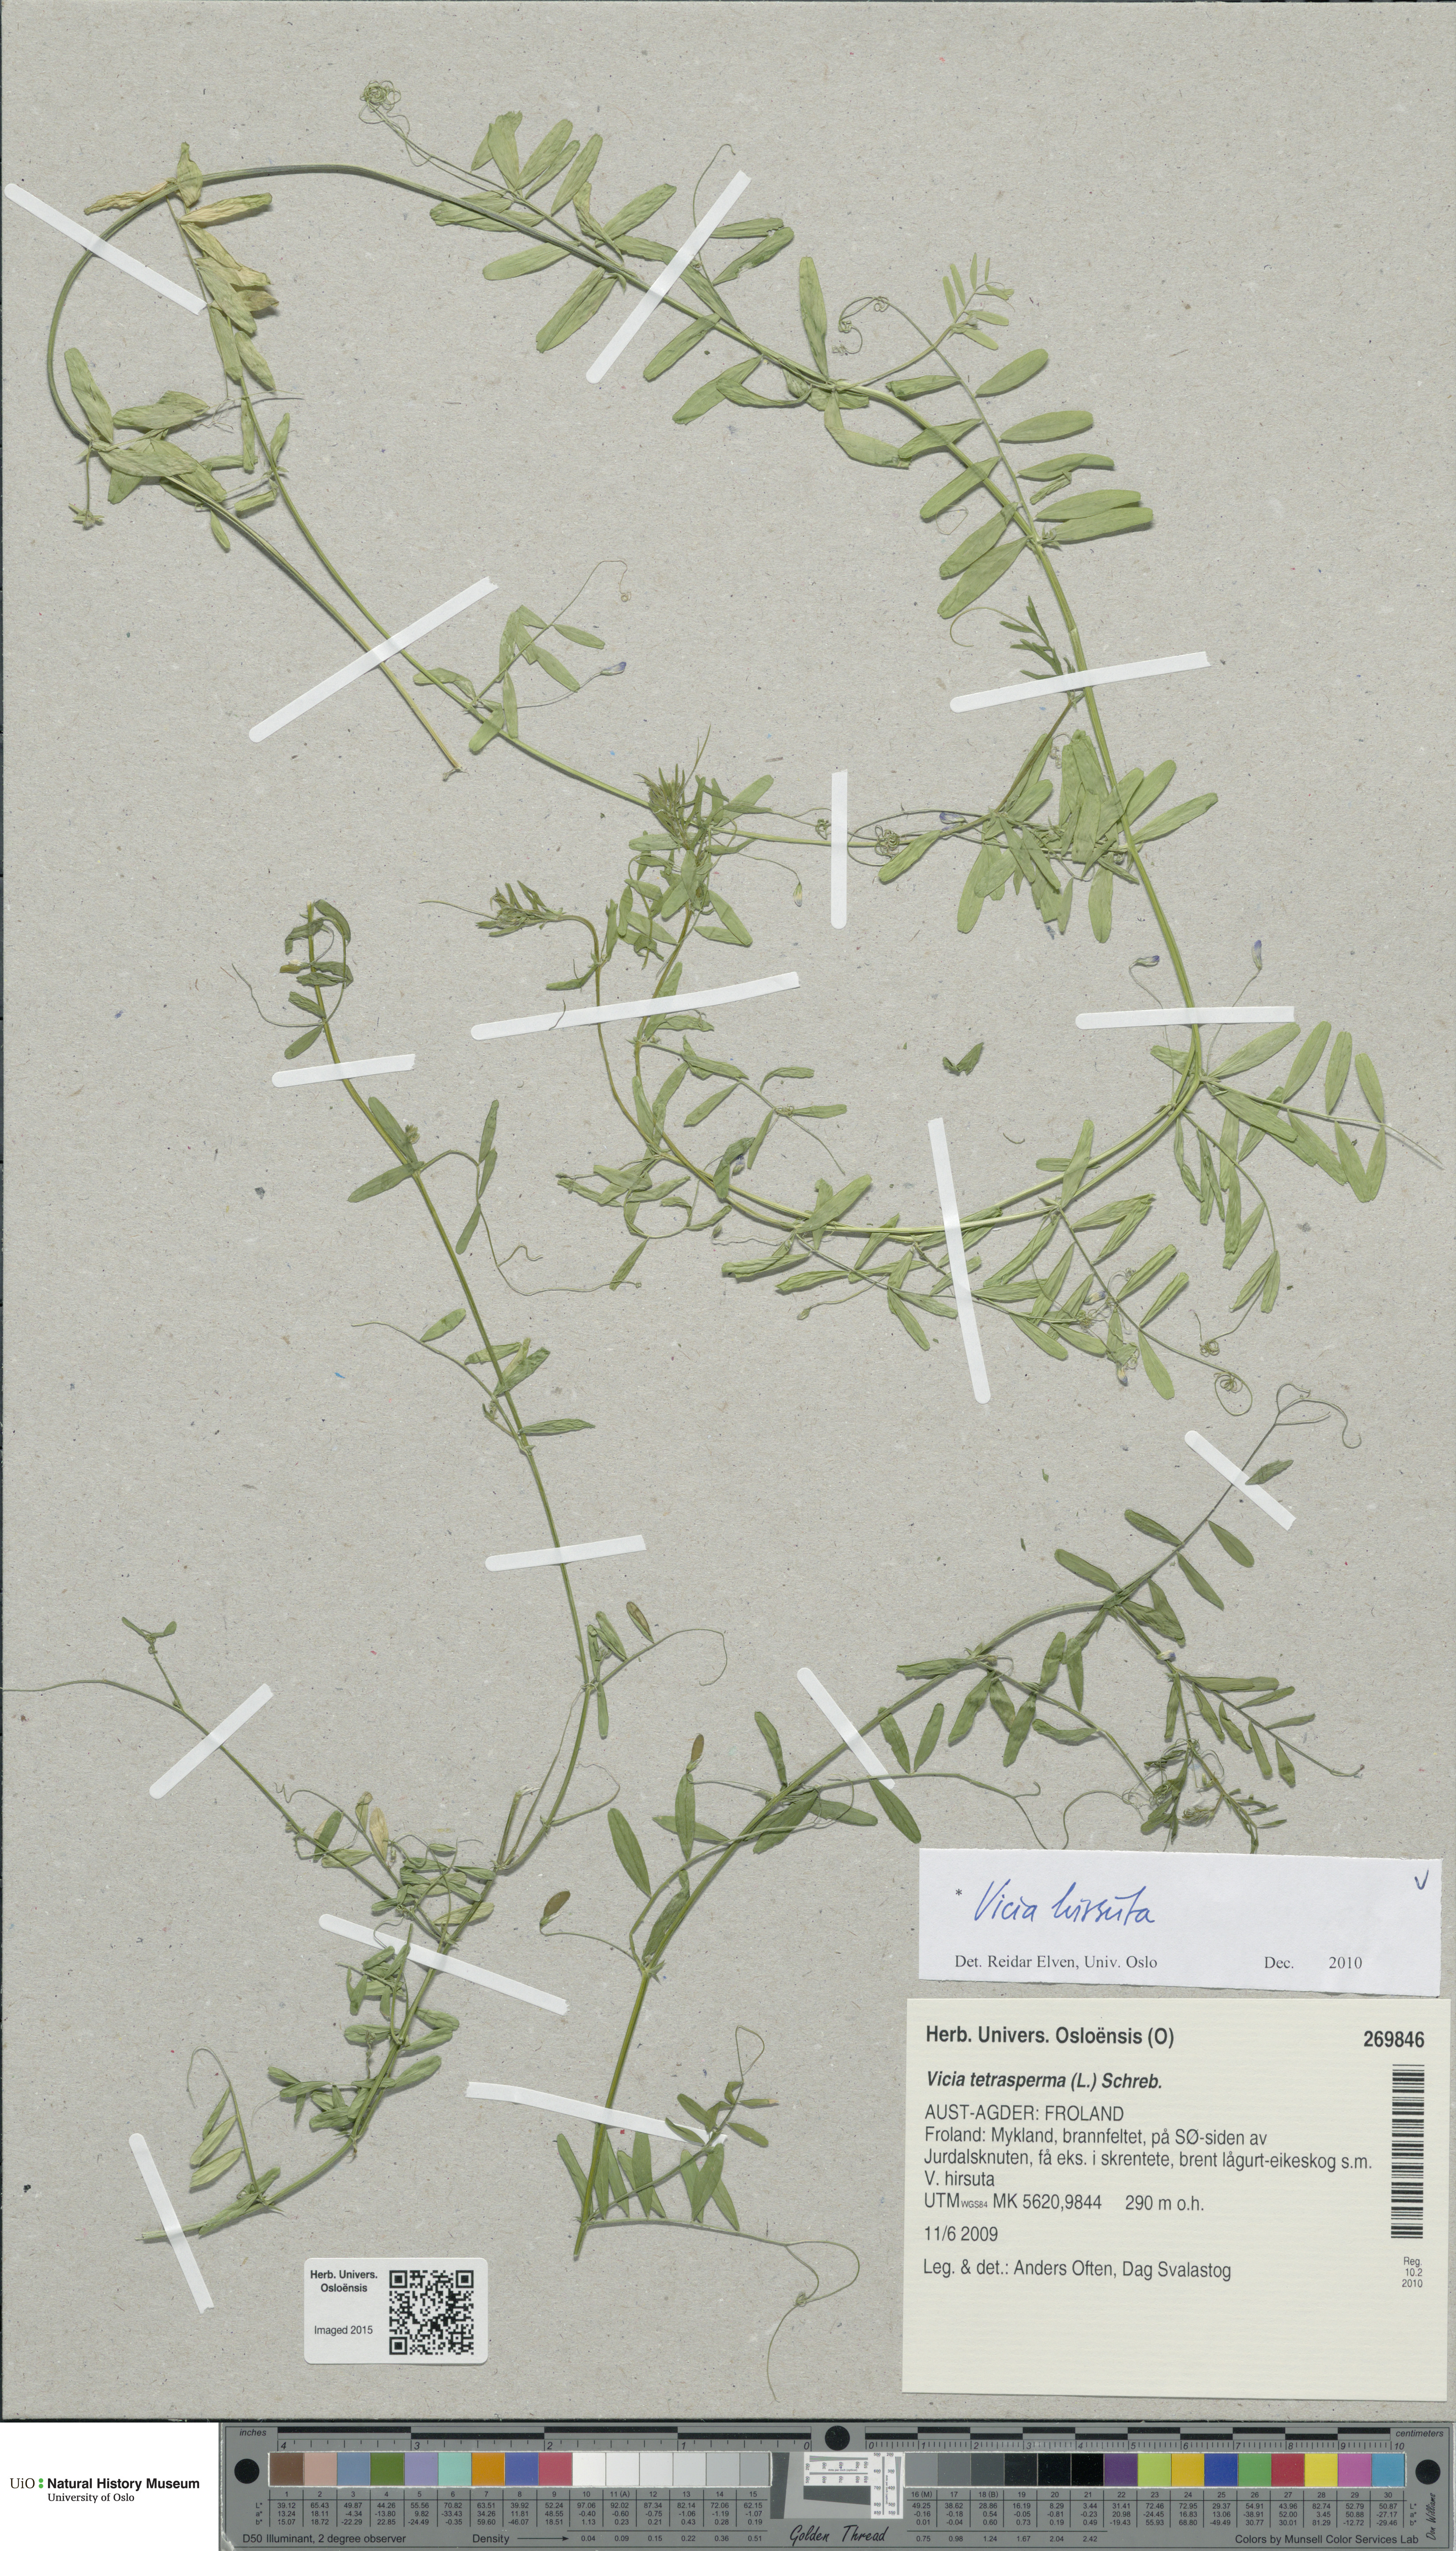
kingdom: Plantae
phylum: Tracheophyta
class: Magnoliopsida
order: Fabales
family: Fabaceae
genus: Vicia
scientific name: Vicia hirsuta
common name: Tiny vetch
